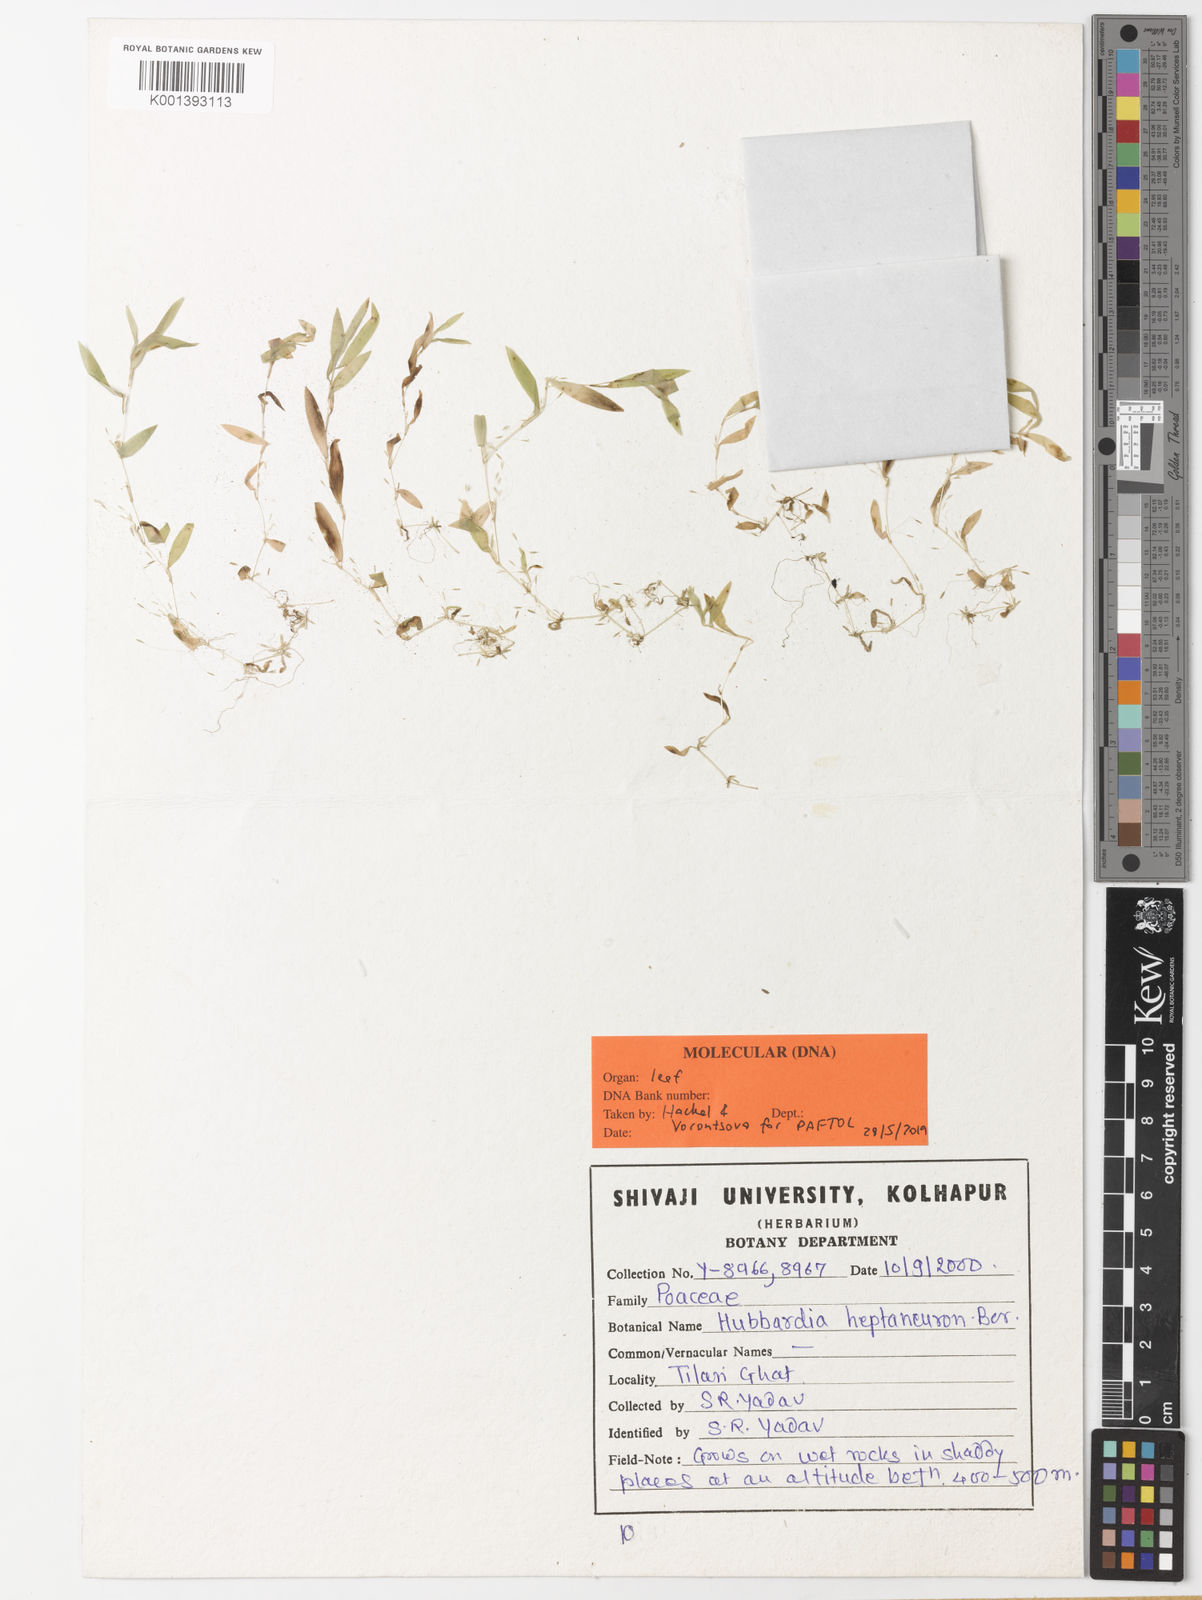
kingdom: Plantae
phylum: Tracheophyta
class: Liliopsida
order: Poales
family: Poaceae
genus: Hubbardia
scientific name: Hubbardia heptaneuron
